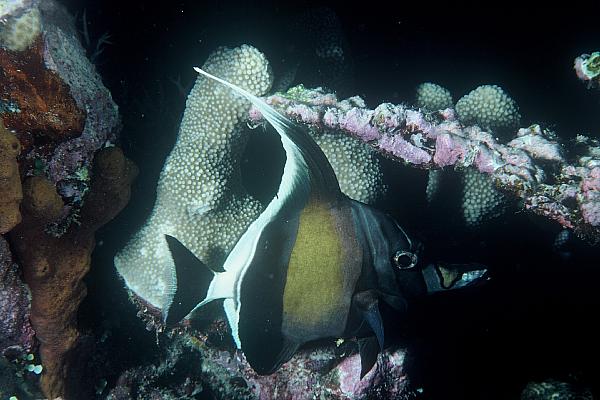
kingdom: Animalia
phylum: Chordata
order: Perciformes
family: Zanclidae
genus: Zanclus
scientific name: Zanclus cornutus
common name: Moorish idol
